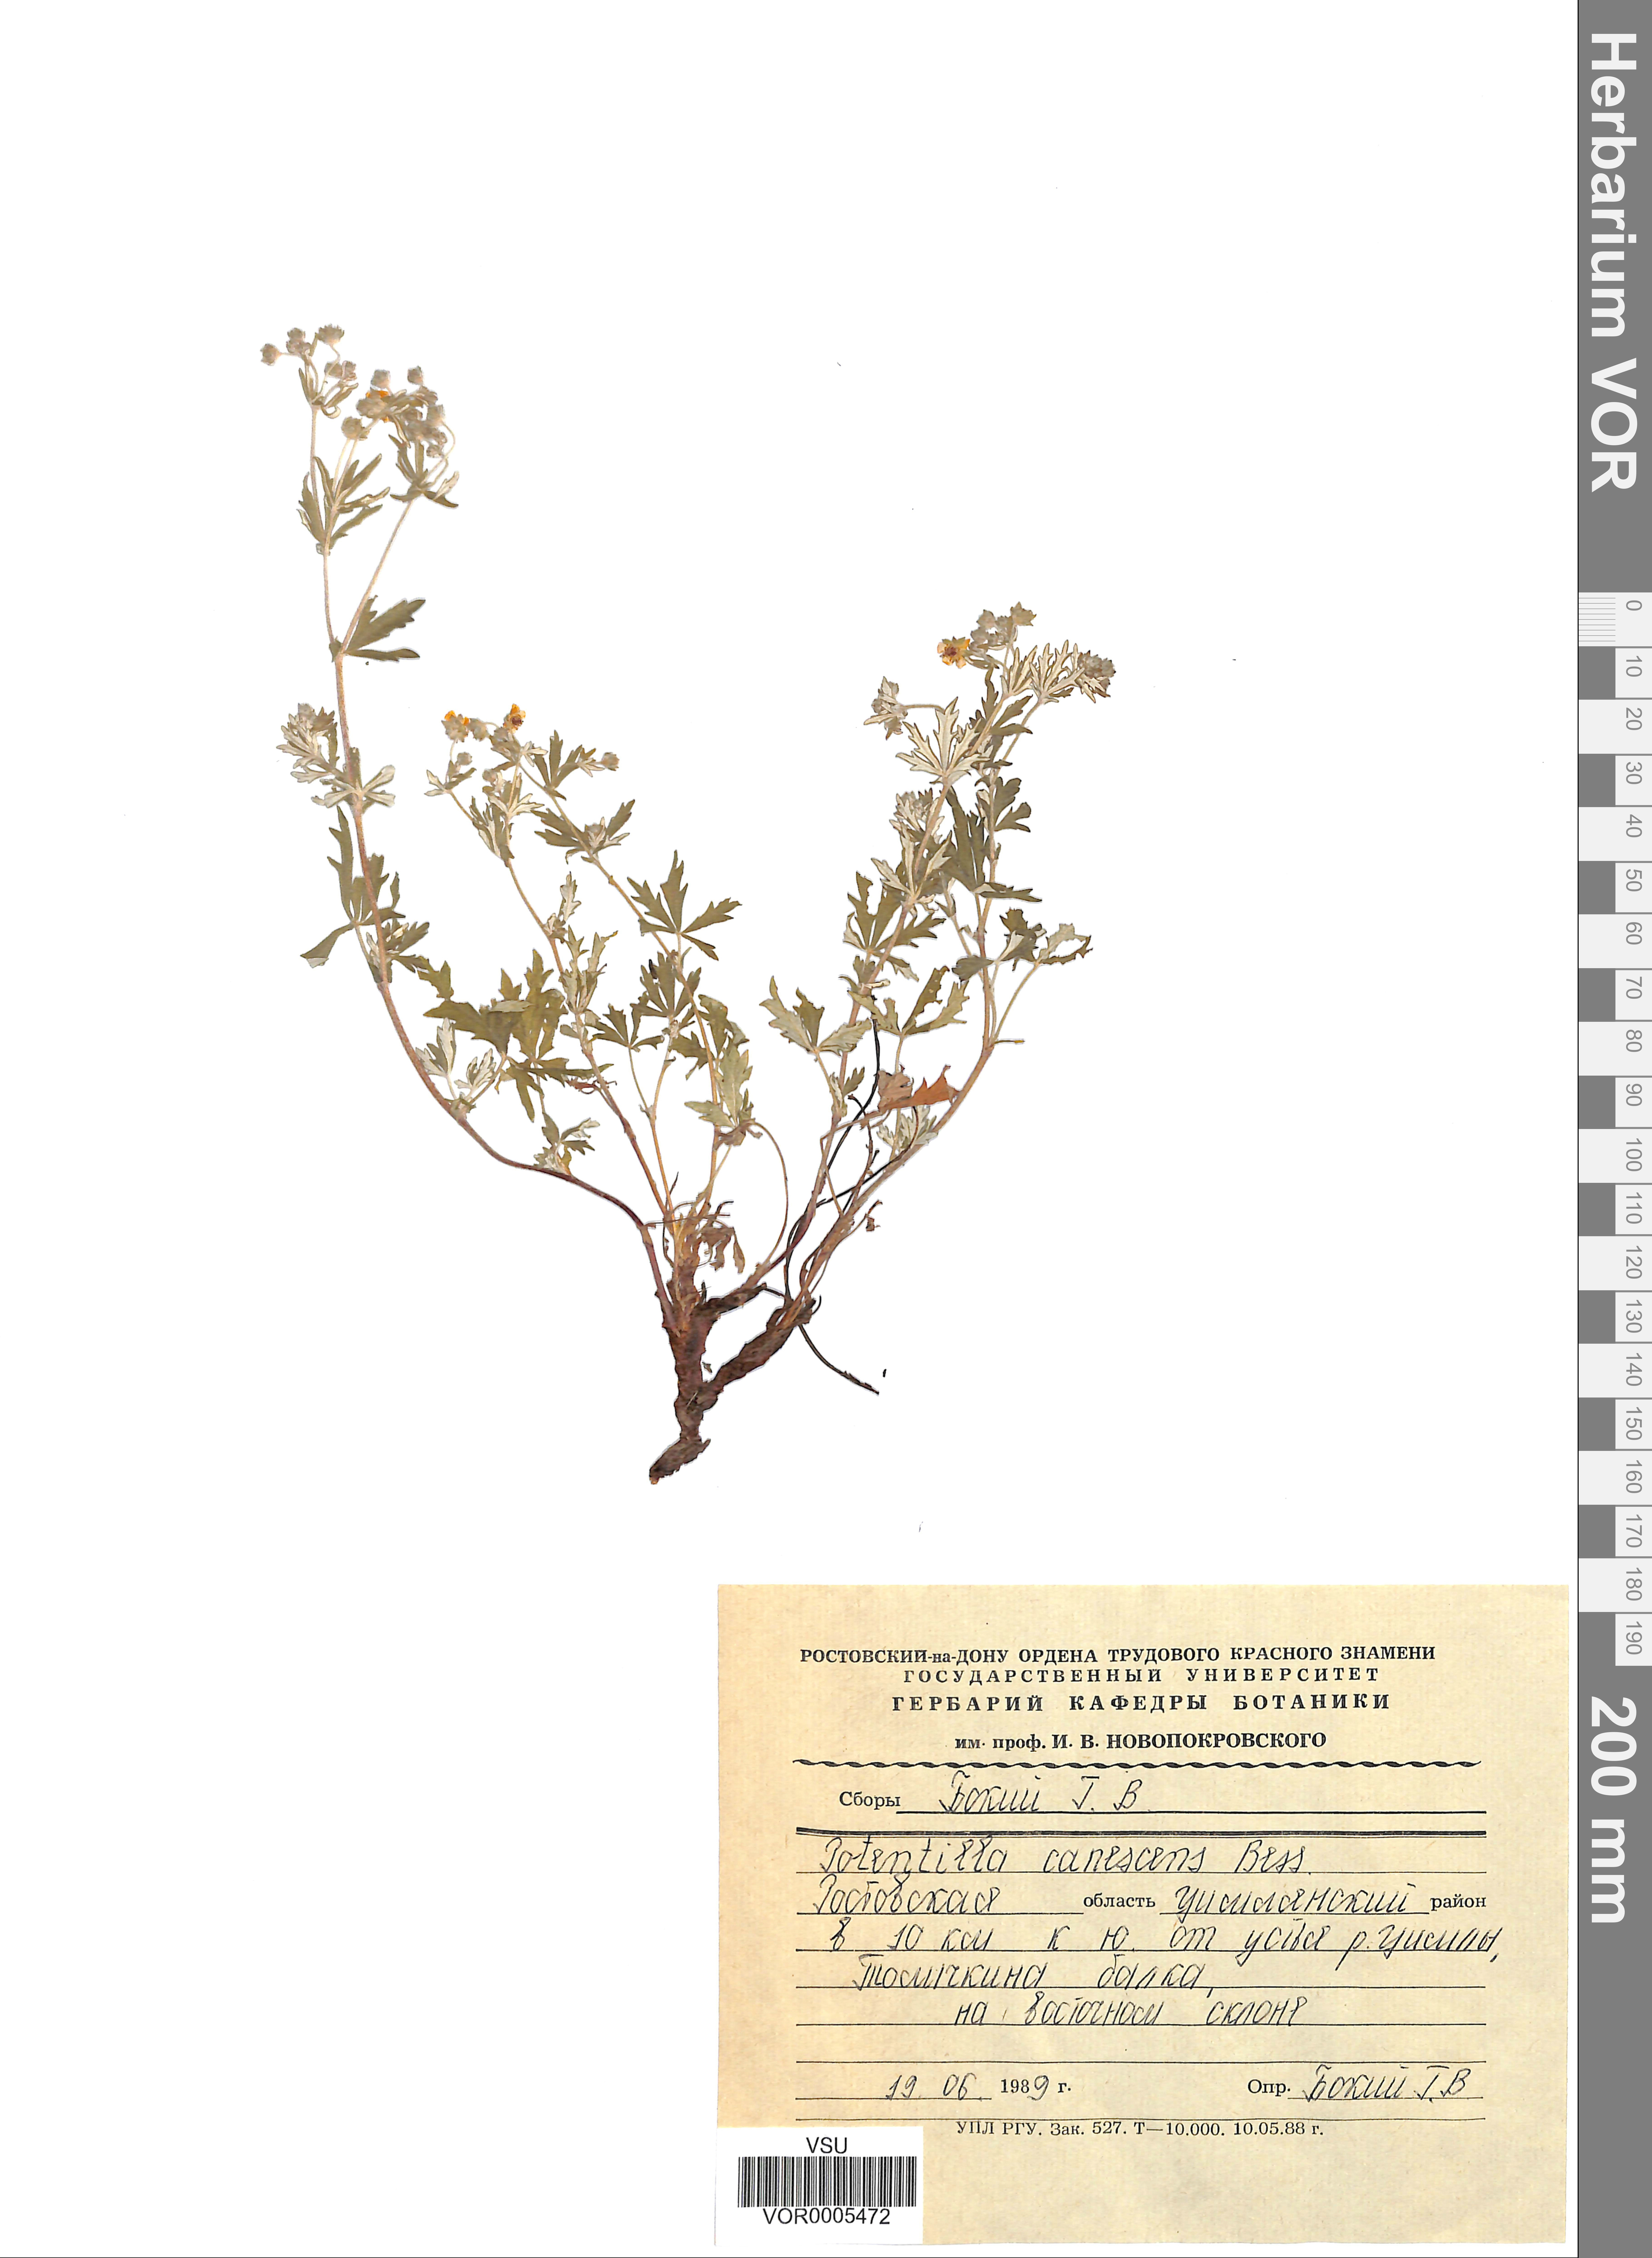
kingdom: Plantae
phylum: Tracheophyta
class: Magnoliopsida
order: Rosales
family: Rosaceae
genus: Potentilla
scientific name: Potentilla inclinata
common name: Grey cinquefoil
